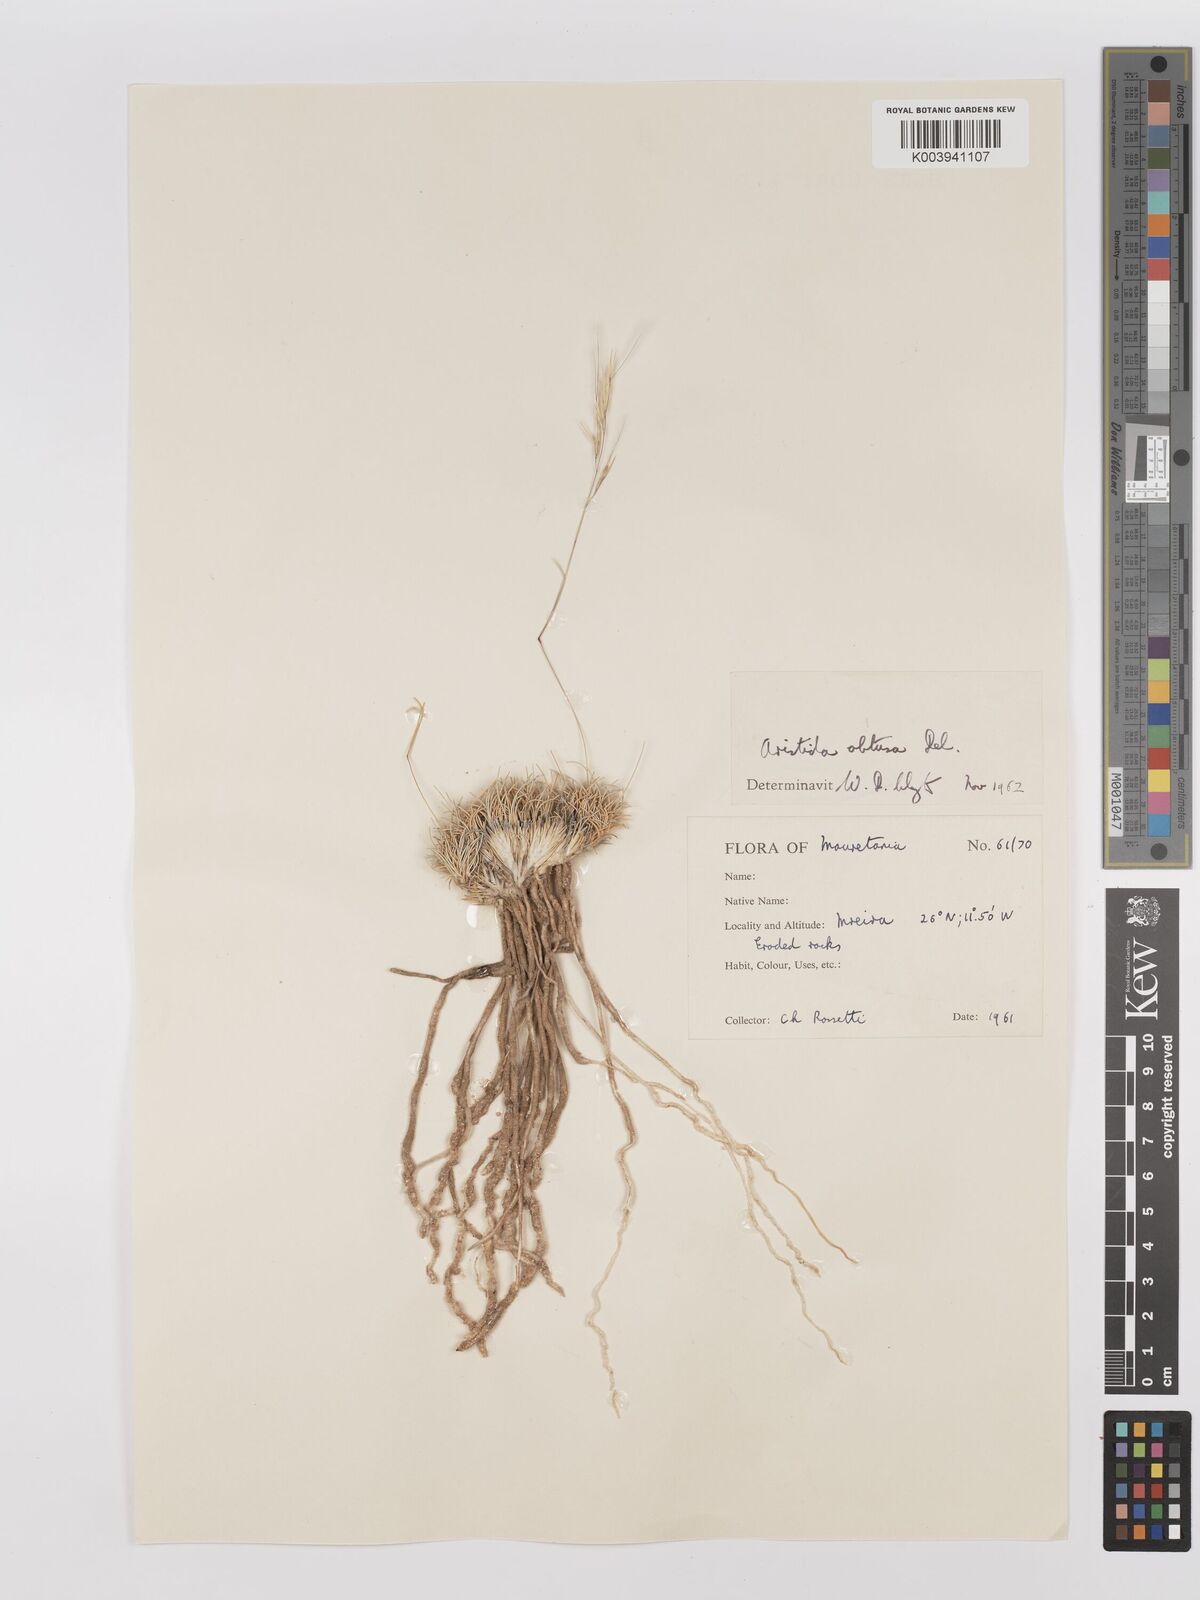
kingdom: Plantae
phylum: Tracheophyta
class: Liliopsida
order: Poales
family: Poaceae
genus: Stipagrostis
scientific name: Stipagrostis obtusa
